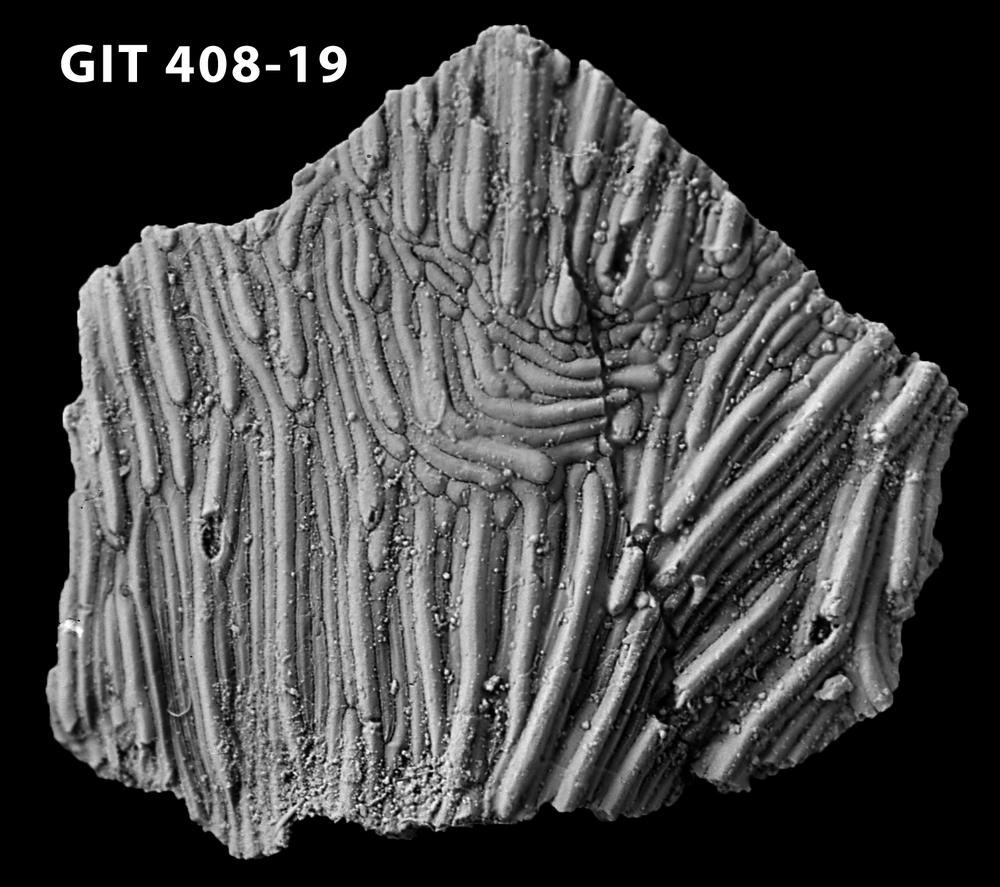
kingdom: Animalia
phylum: Chordata
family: Cyathaspididae
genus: Cyathaspis
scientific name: Cyathaspis
